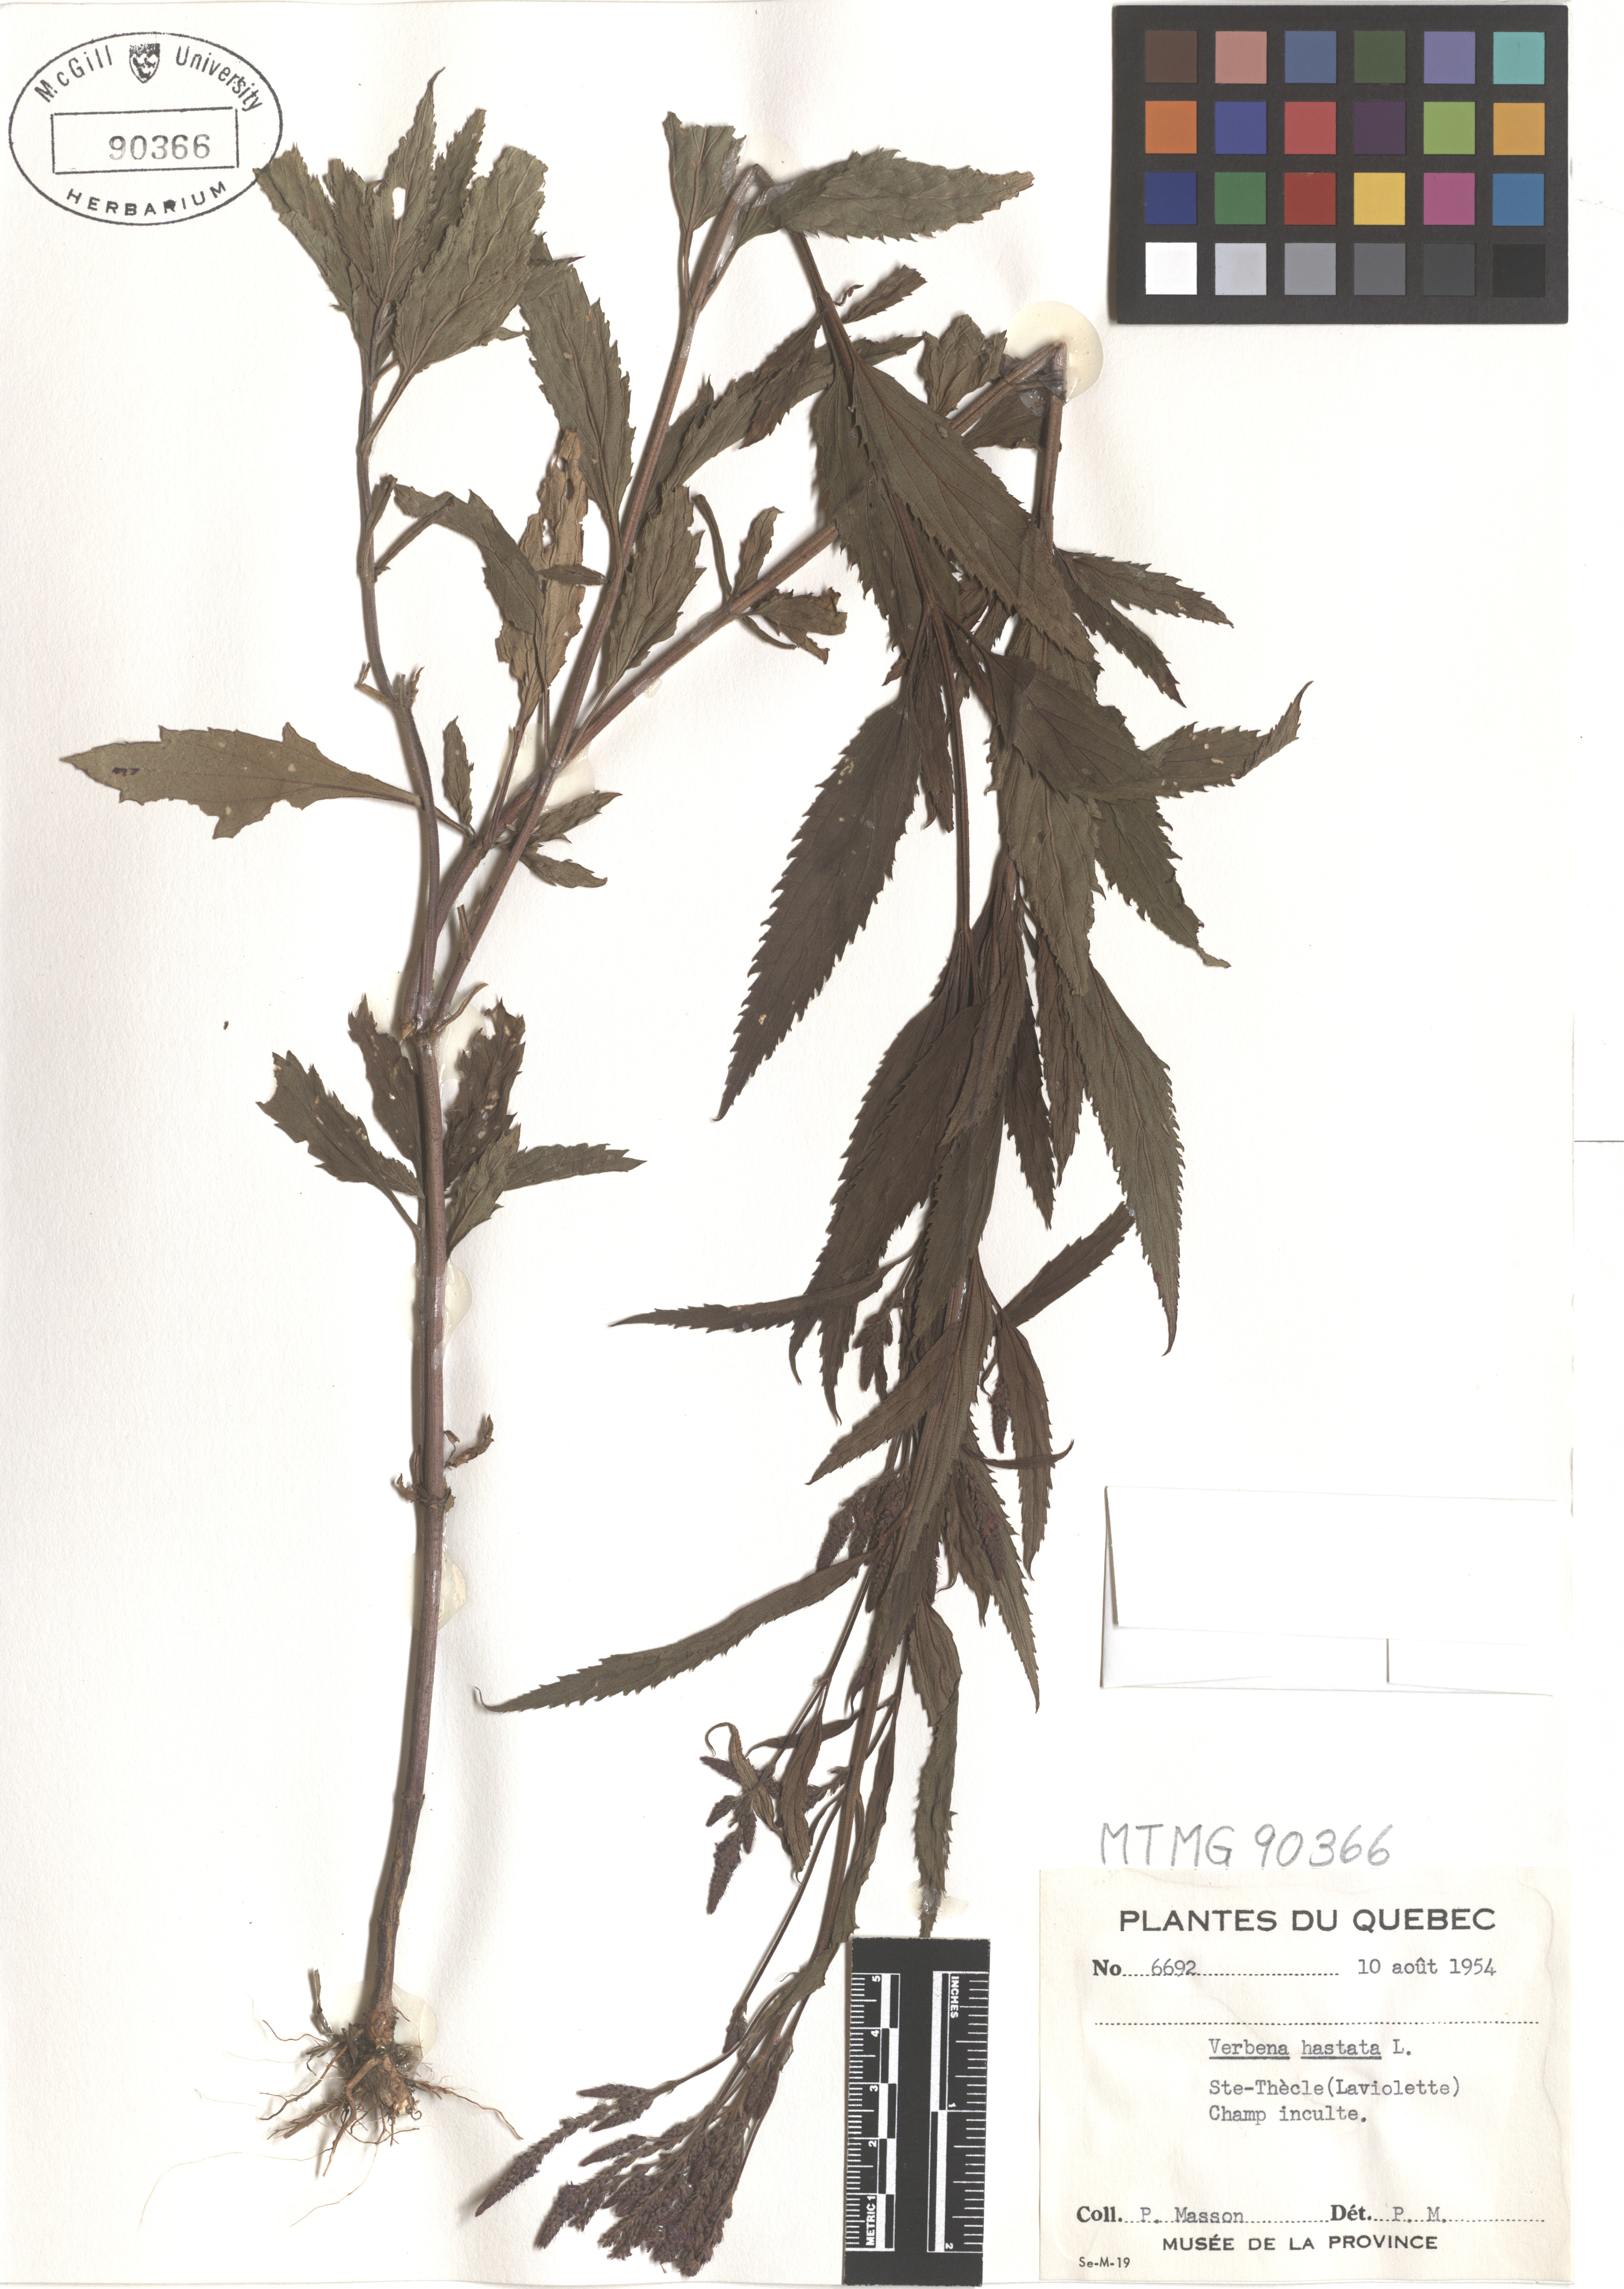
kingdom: Plantae
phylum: Tracheophyta
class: Magnoliopsida
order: Lamiales
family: Verbenaceae
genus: Verbena
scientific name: Verbena hastata
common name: American blue vervain
